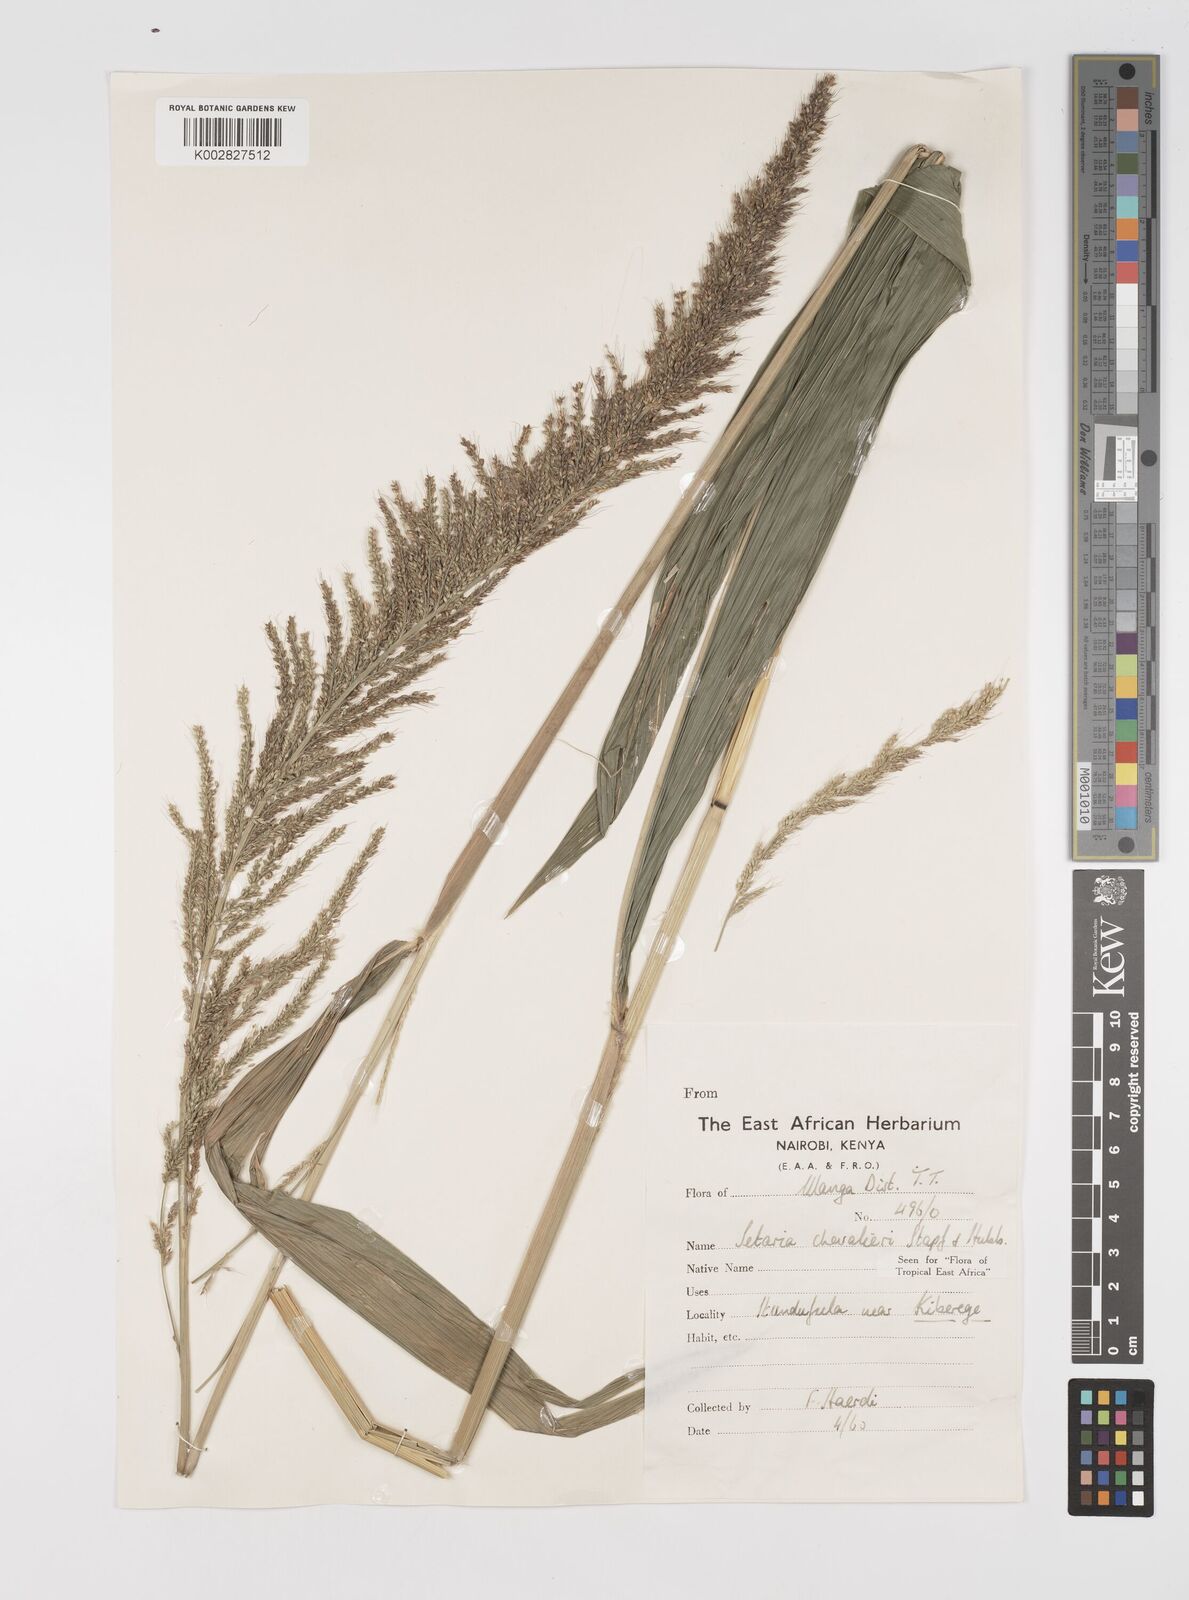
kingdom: Plantae
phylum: Tracheophyta
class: Liliopsida
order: Poales
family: Poaceae
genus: Setaria
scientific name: Setaria megaphylla
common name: Bigleaf bristlegrass
